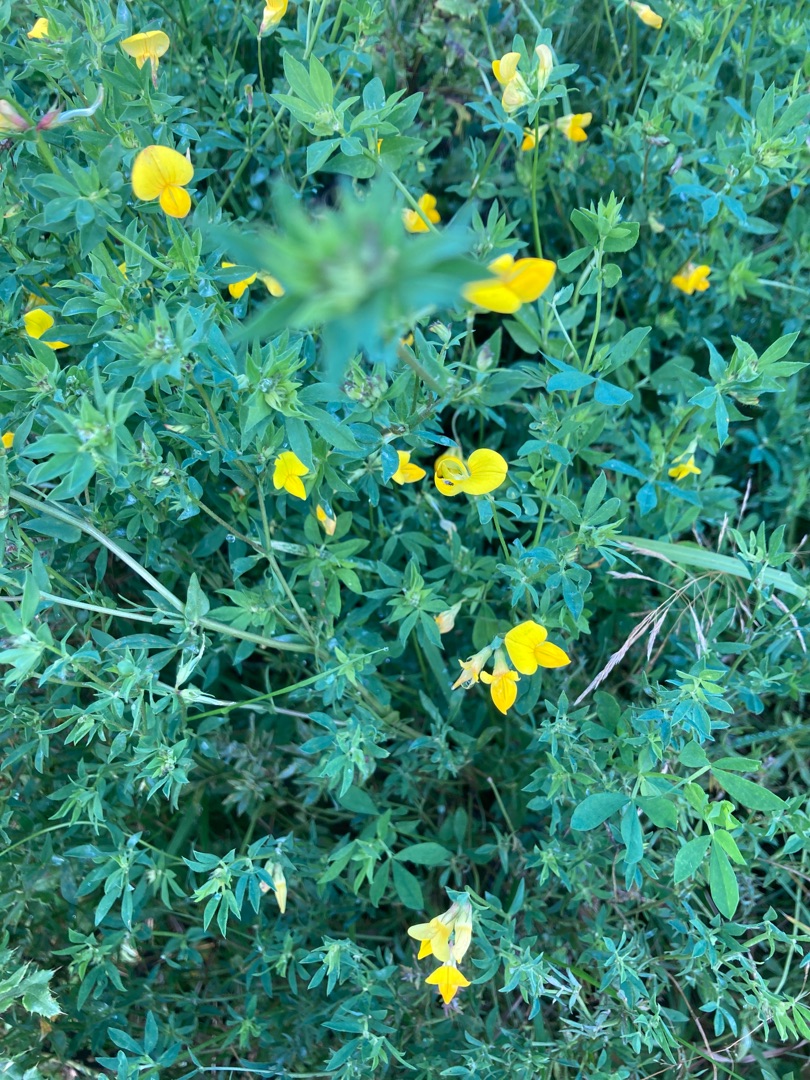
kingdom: Plantae
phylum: Tracheophyta
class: Magnoliopsida
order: Fabales
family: Fabaceae
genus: Lotus
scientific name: Lotus corniculatus
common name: Almindelig kællingetand
